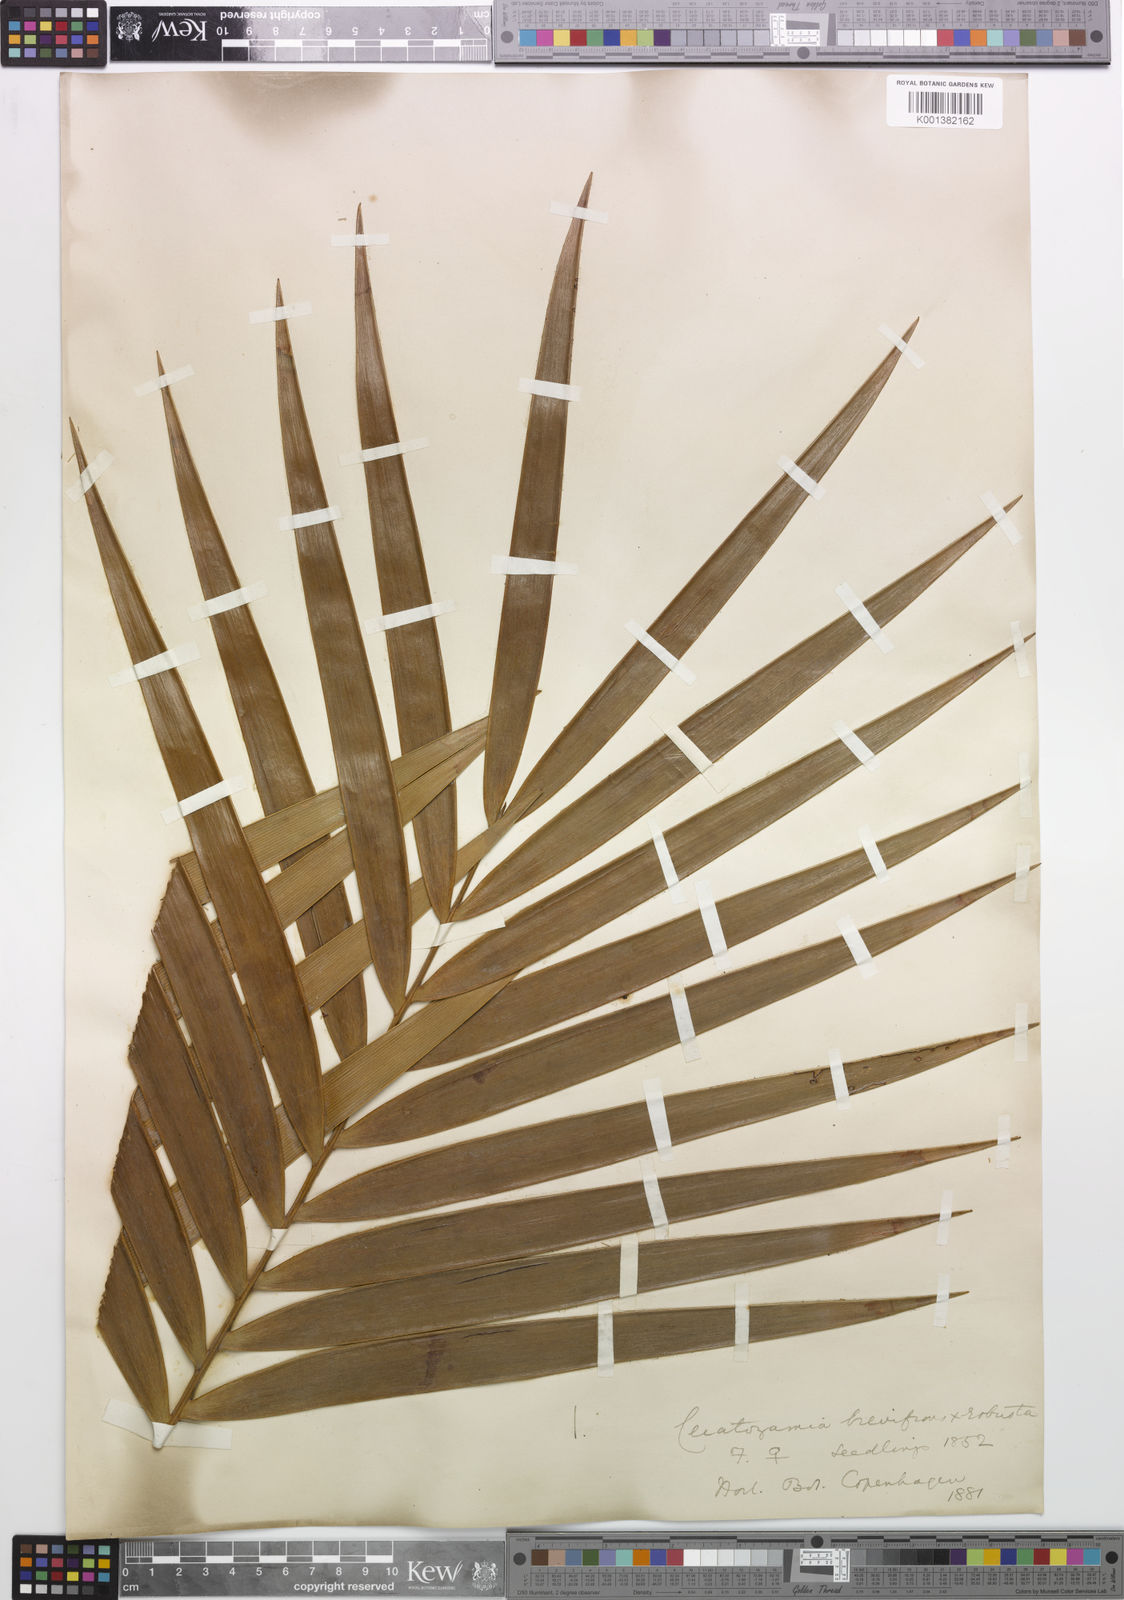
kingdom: Plantae
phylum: Tracheophyta
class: Cycadopsida
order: Cycadales
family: Zamiaceae
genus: Ceratozamia
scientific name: Ceratozamia brevifrons
